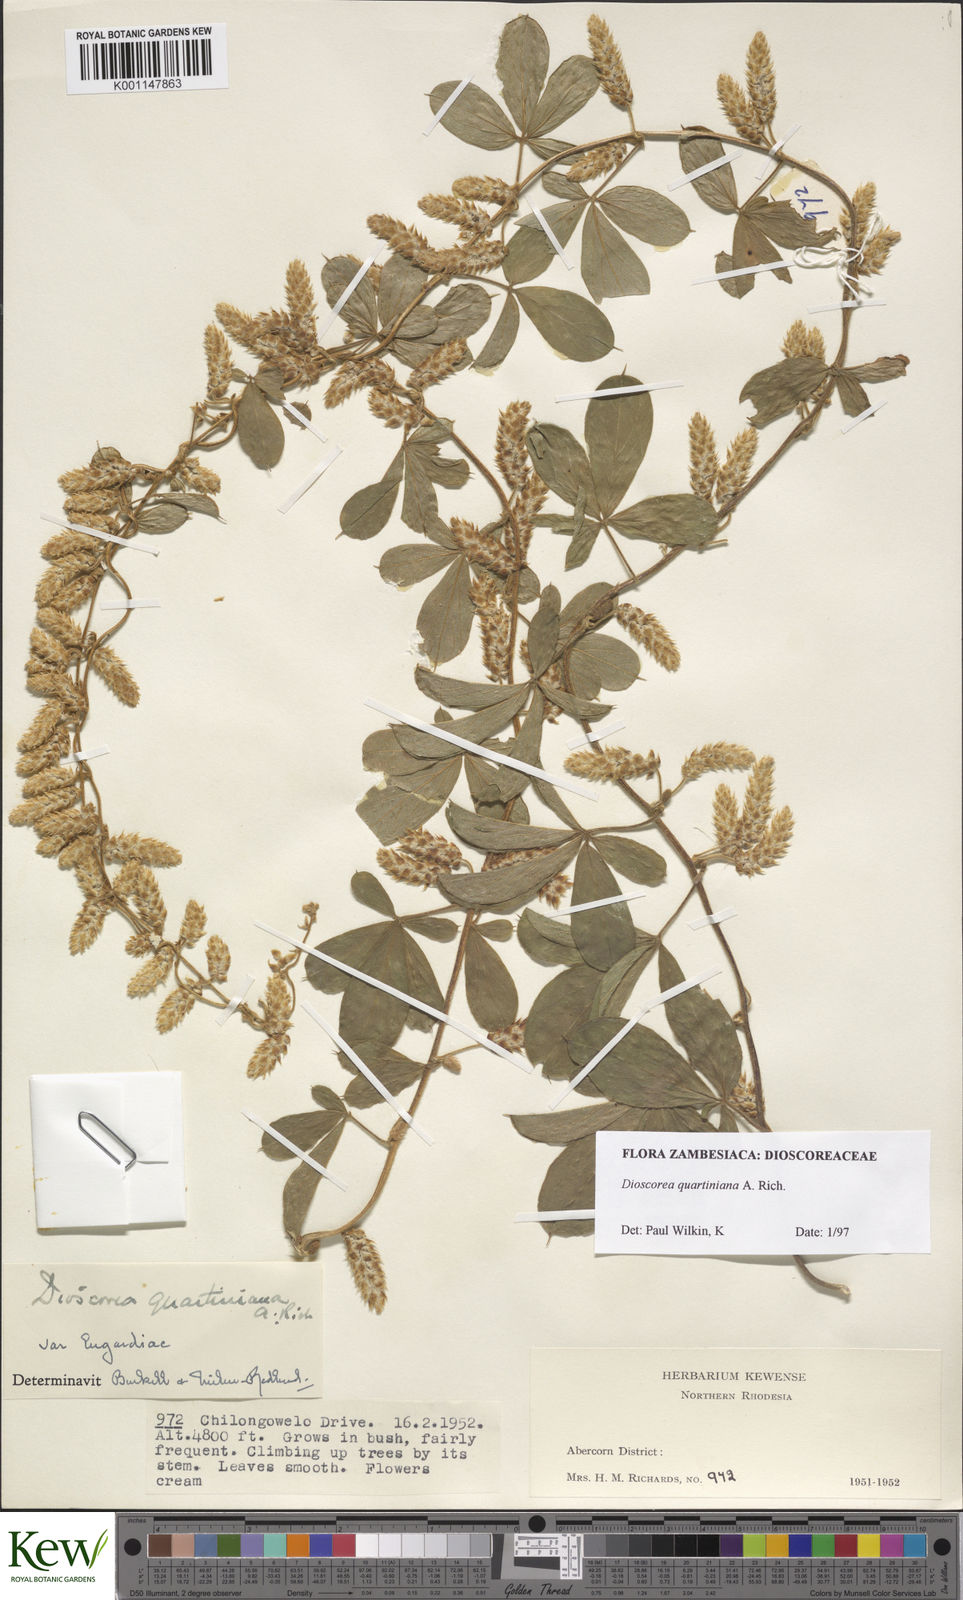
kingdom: Plantae
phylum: Tracheophyta
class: Liliopsida
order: Dioscoreales
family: Dioscoreaceae
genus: Dioscorea
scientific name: Dioscorea quartiniana
